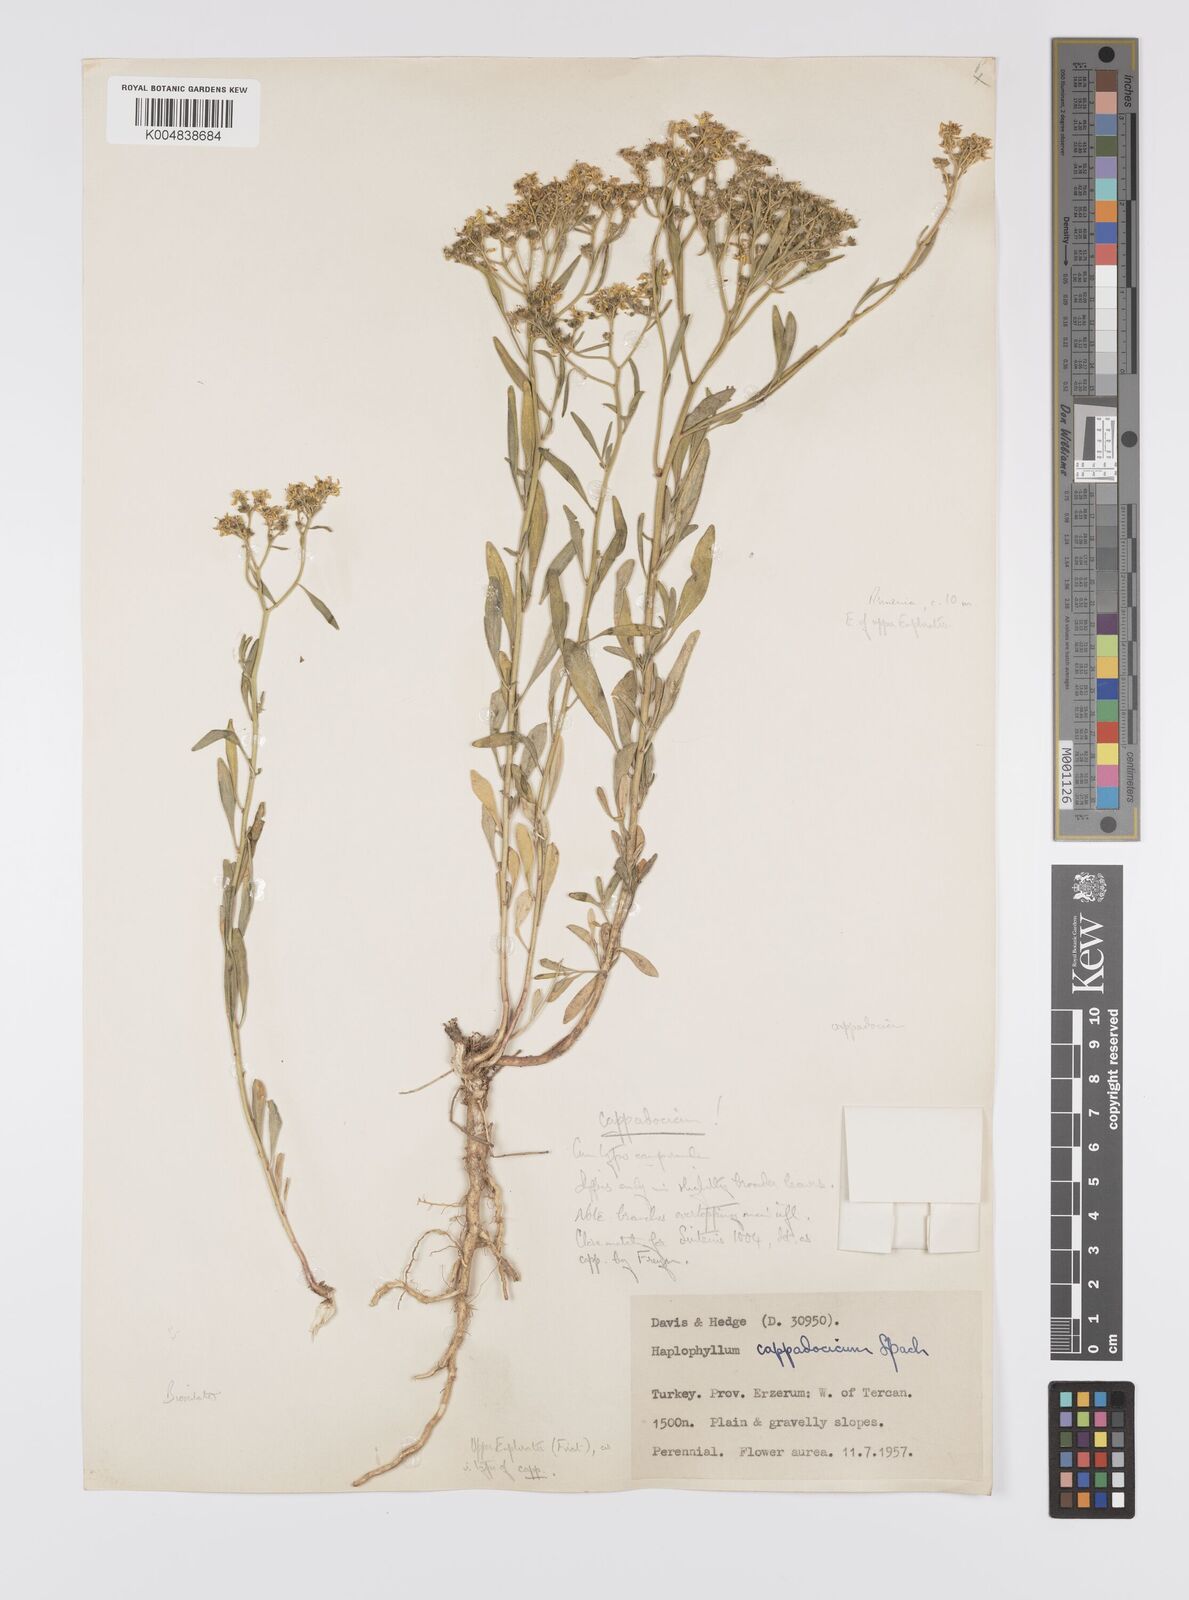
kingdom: Plantae
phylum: Tracheophyta
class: Magnoliopsida
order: Sapindales
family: Rutaceae
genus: Haplophyllum
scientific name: Haplophyllum cappadocicum
